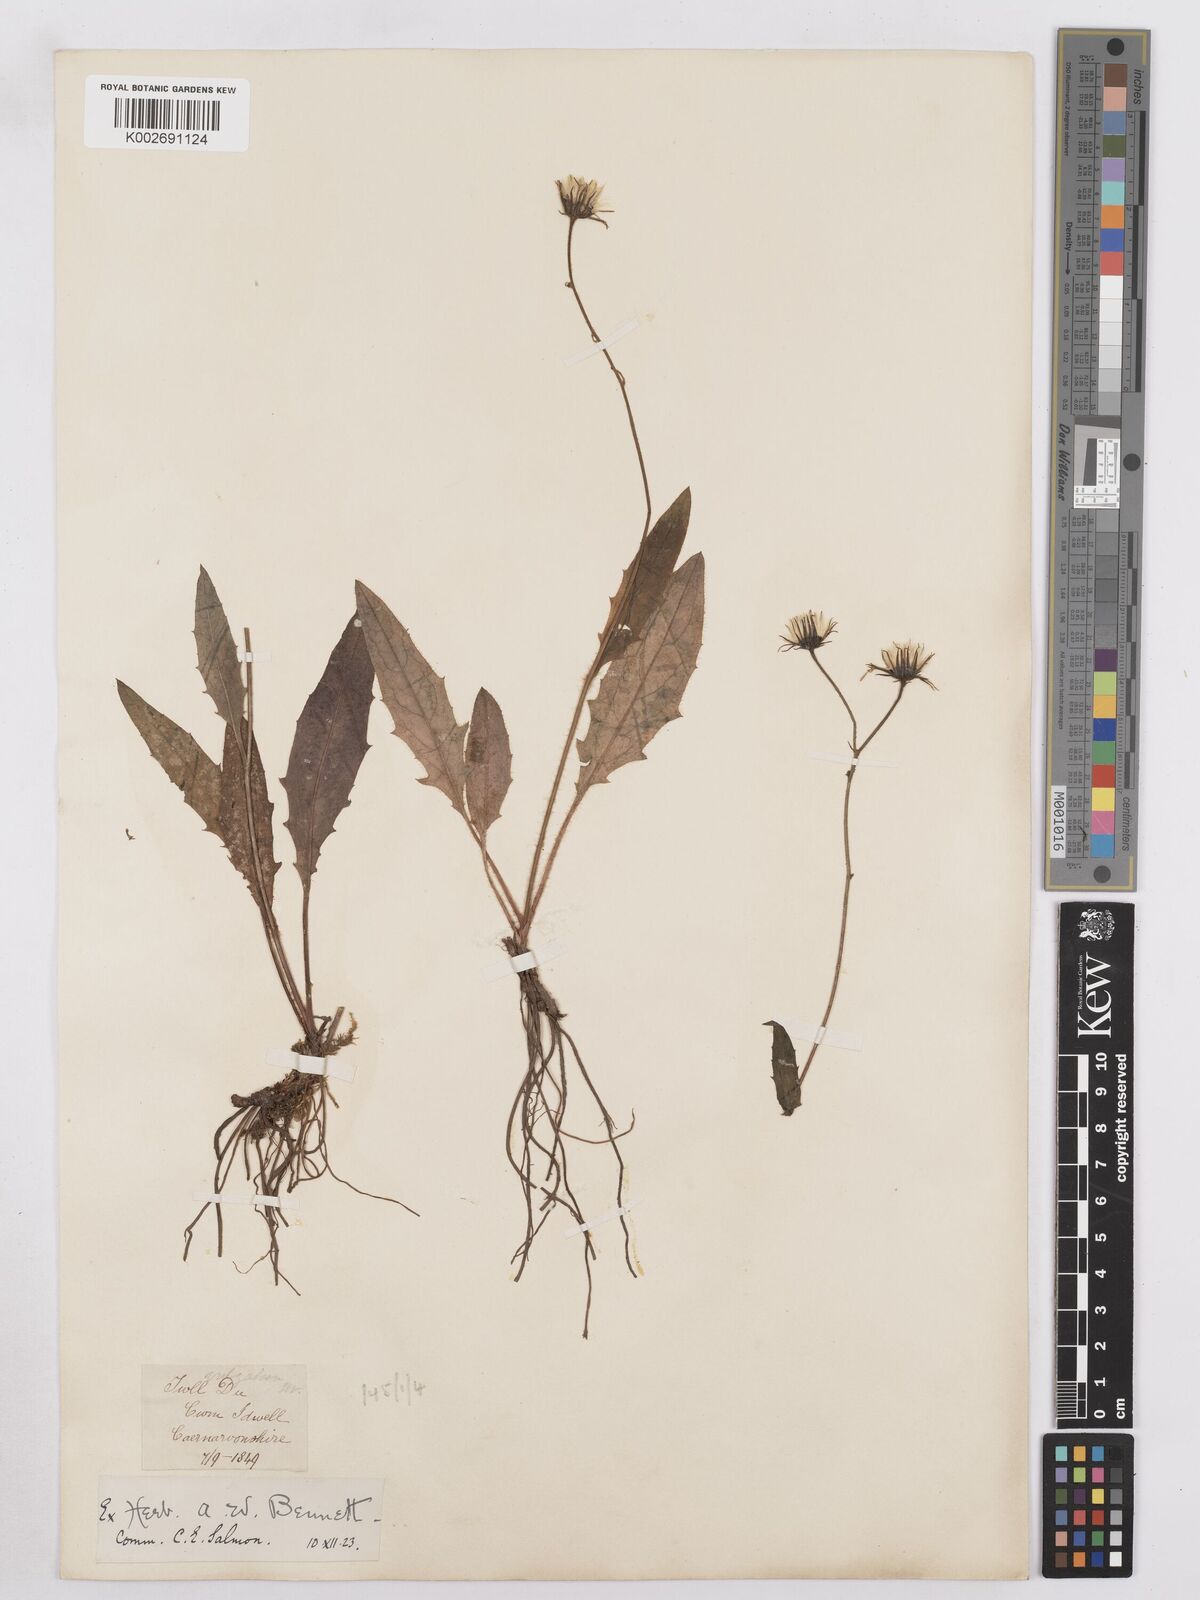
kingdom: Plantae
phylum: Tracheophyta
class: Magnoliopsida
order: Asterales
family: Asteraceae
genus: Hieracium
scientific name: Hieracium lachenalii
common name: Common hawkweed
